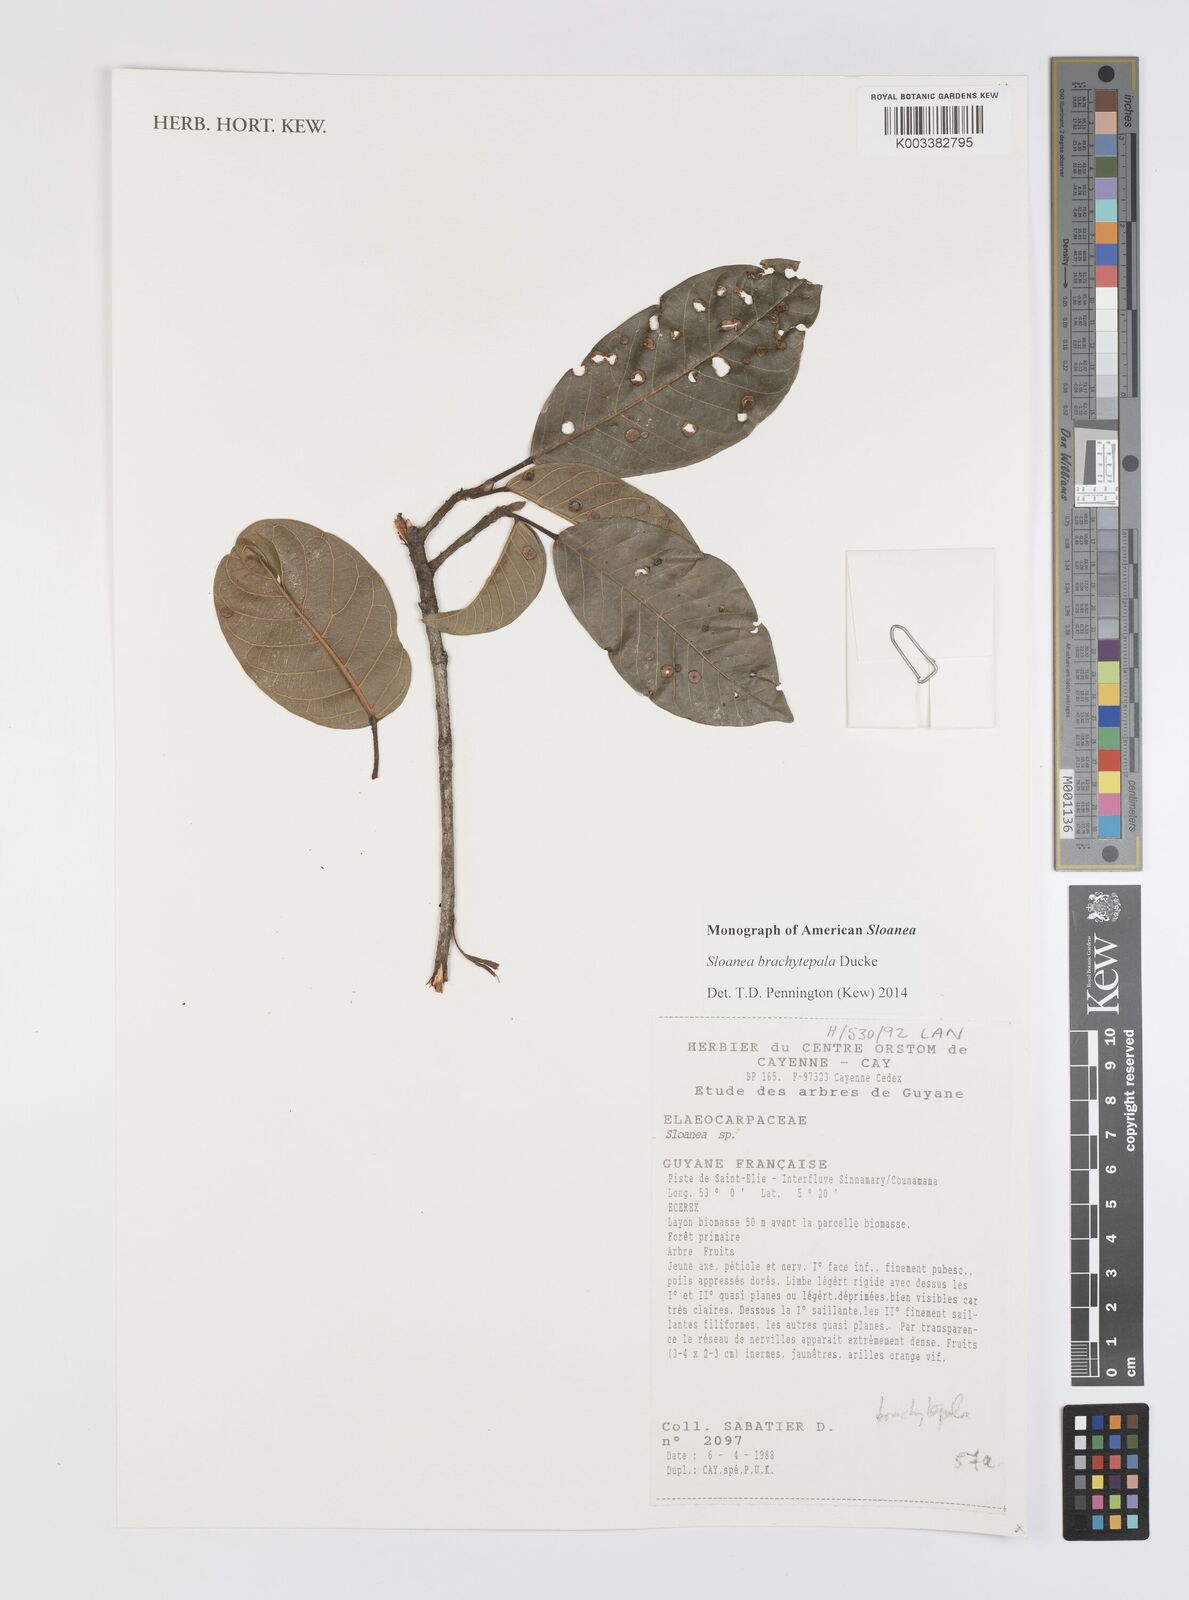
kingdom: Plantae
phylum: Tracheophyta
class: Magnoliopsida
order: Oxalidales
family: Elaeocarpaceae
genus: Sloanea
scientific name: Sloanea brachytepala
